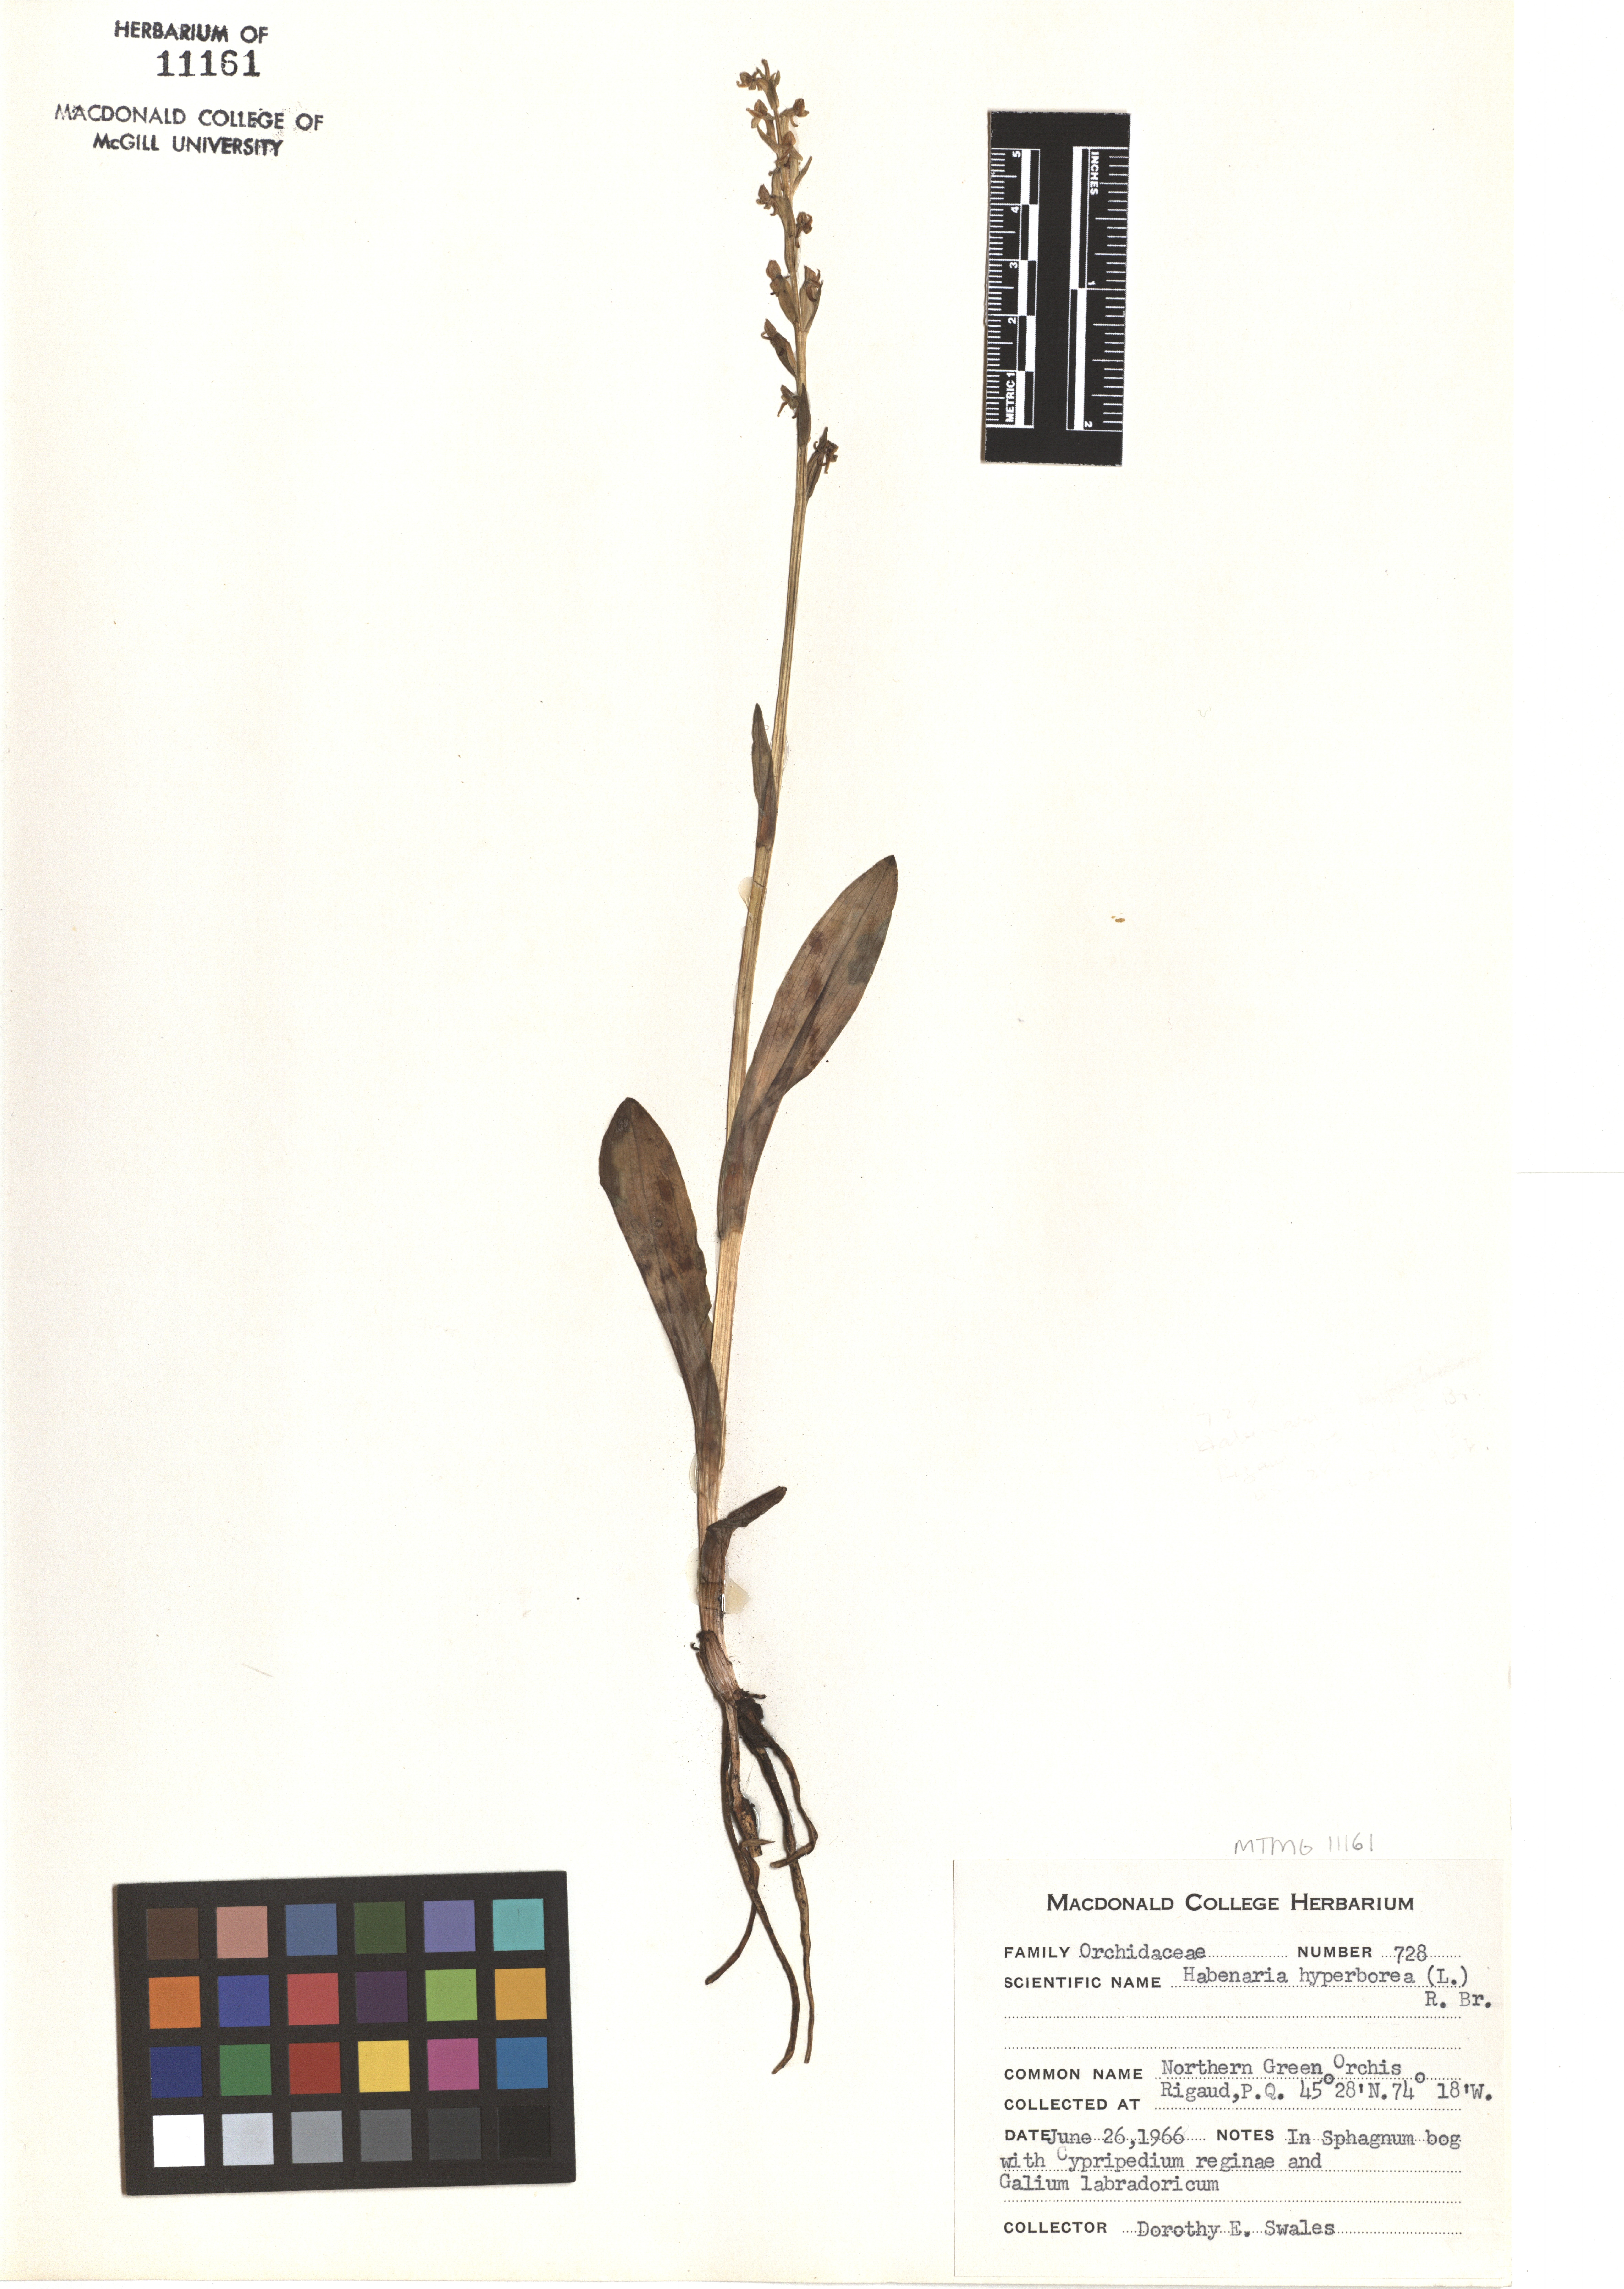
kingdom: Plantae
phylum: Tracheophyta
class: Liliopsida
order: Asparagales
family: Orchidaceae
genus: Platanthera
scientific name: Platanthera hyperborea
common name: Northern green orchid
